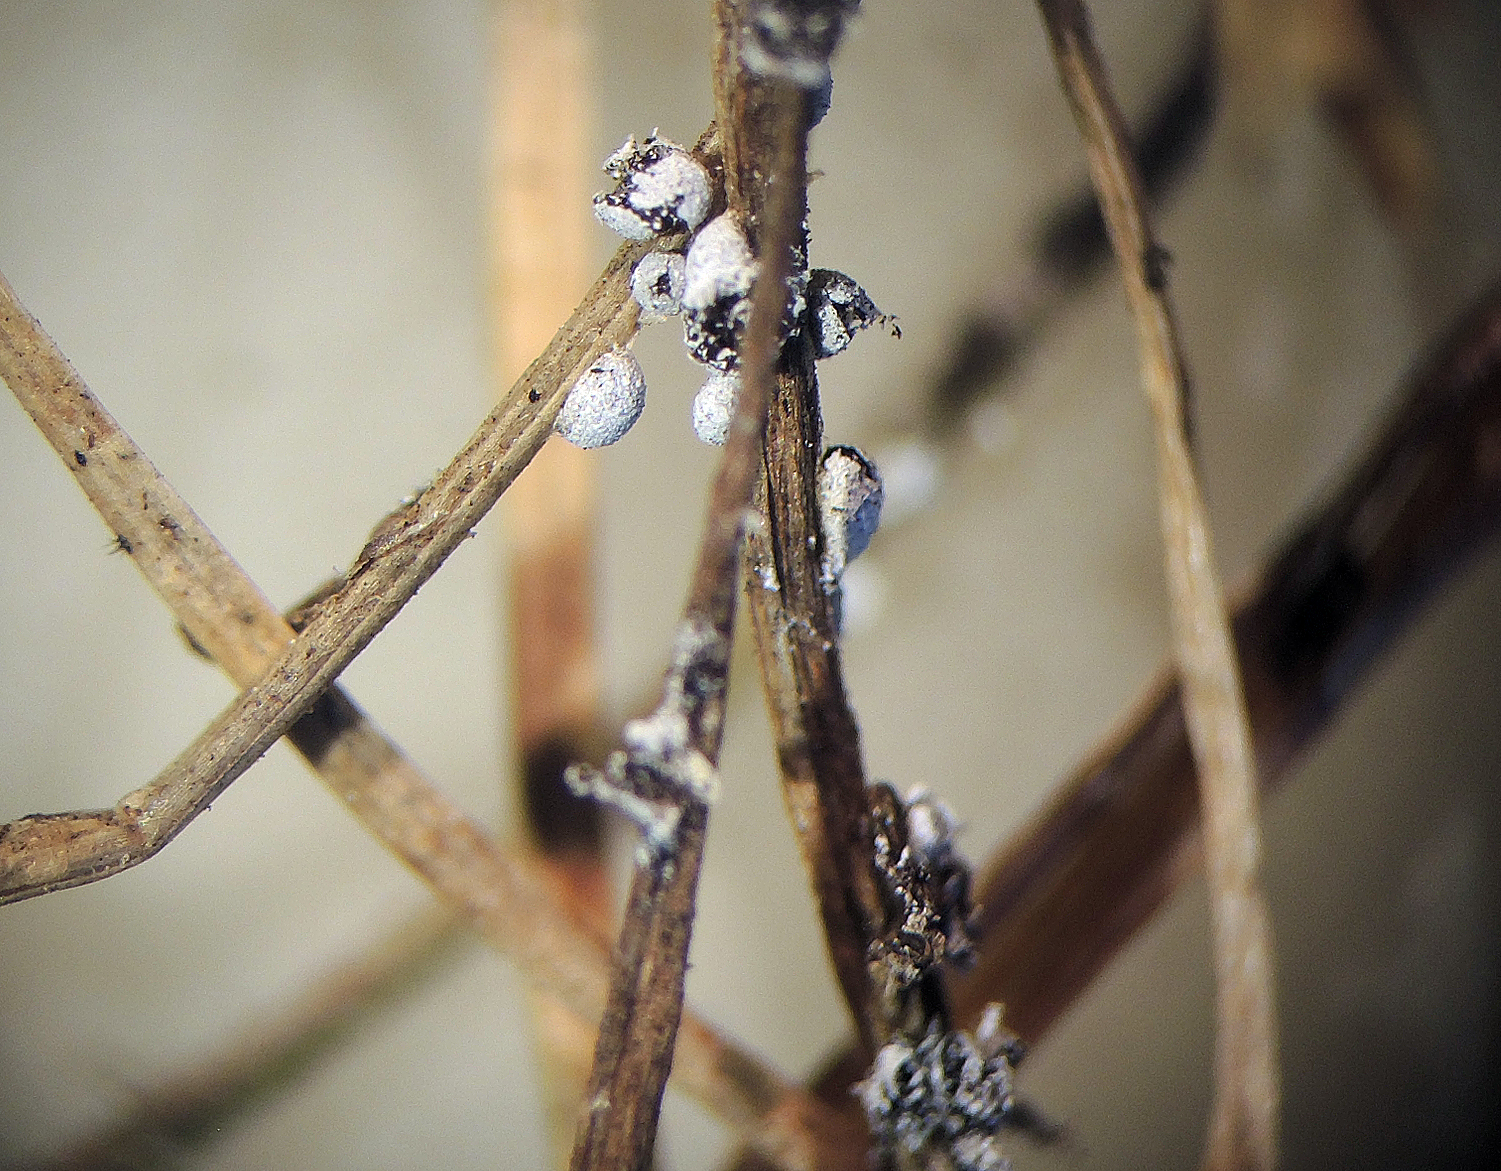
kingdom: Protozoa
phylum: Mycetozoa
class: Myxomycetes
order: Physarales
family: Physaraceae
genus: Physarum
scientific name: Physarum
